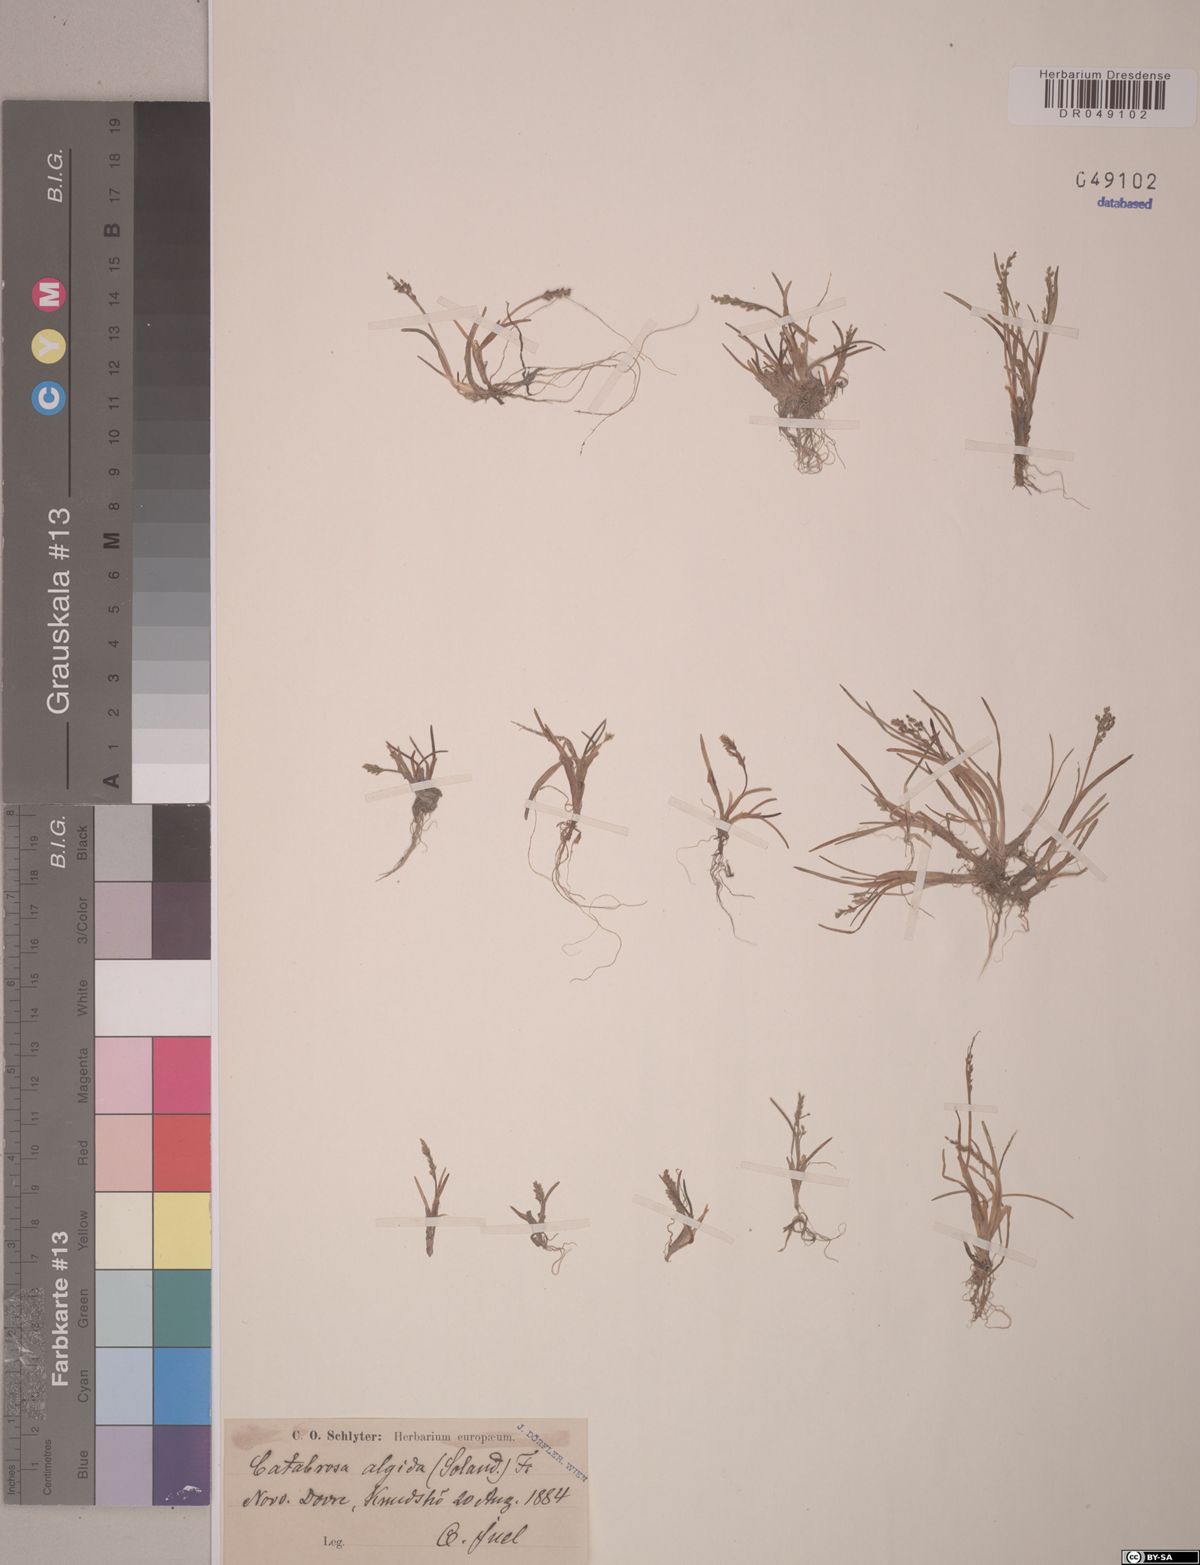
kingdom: Plantae
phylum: Tracheophyta
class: Liliopsida
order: Poales
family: Poaceae
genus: Phippsia
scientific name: Phippsia algida
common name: Ice grass
